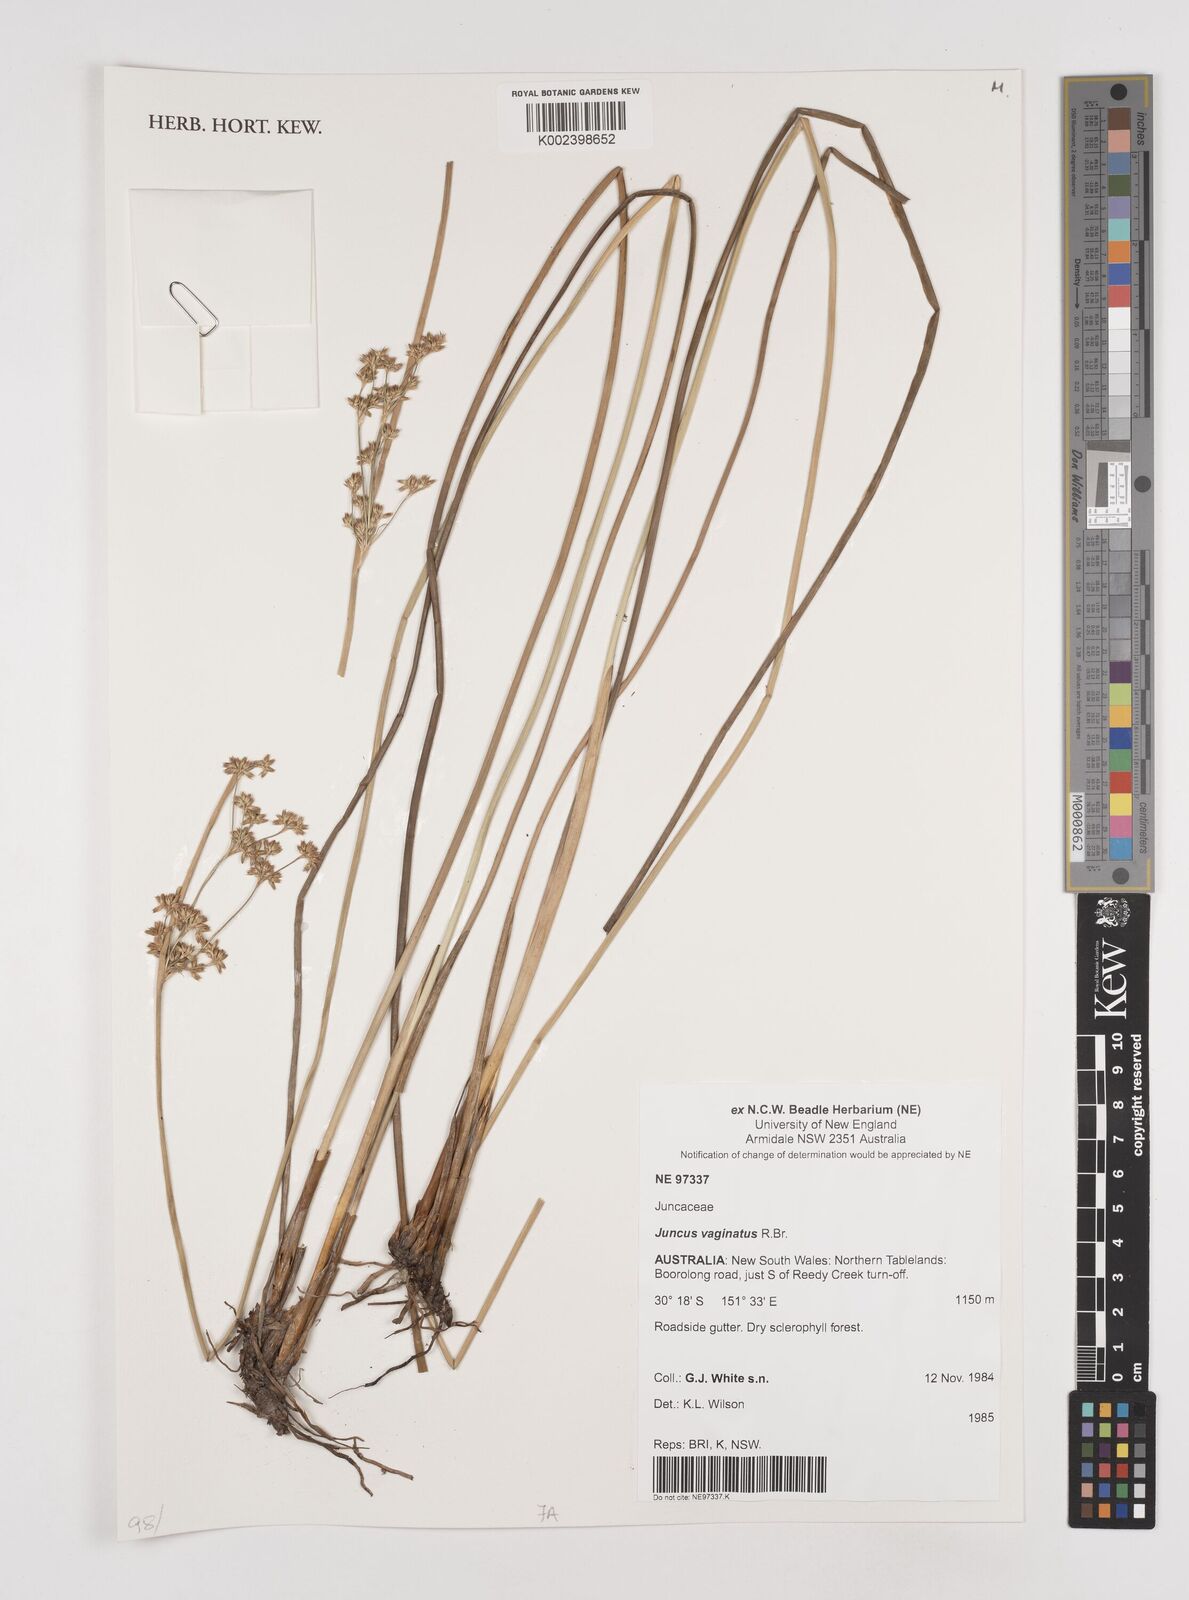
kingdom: Plantae
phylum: Tracheophyta
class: Liliopsida
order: Poales
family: Juncaceae
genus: Juncus
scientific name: Juncus vaginatus
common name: Clustered rush
